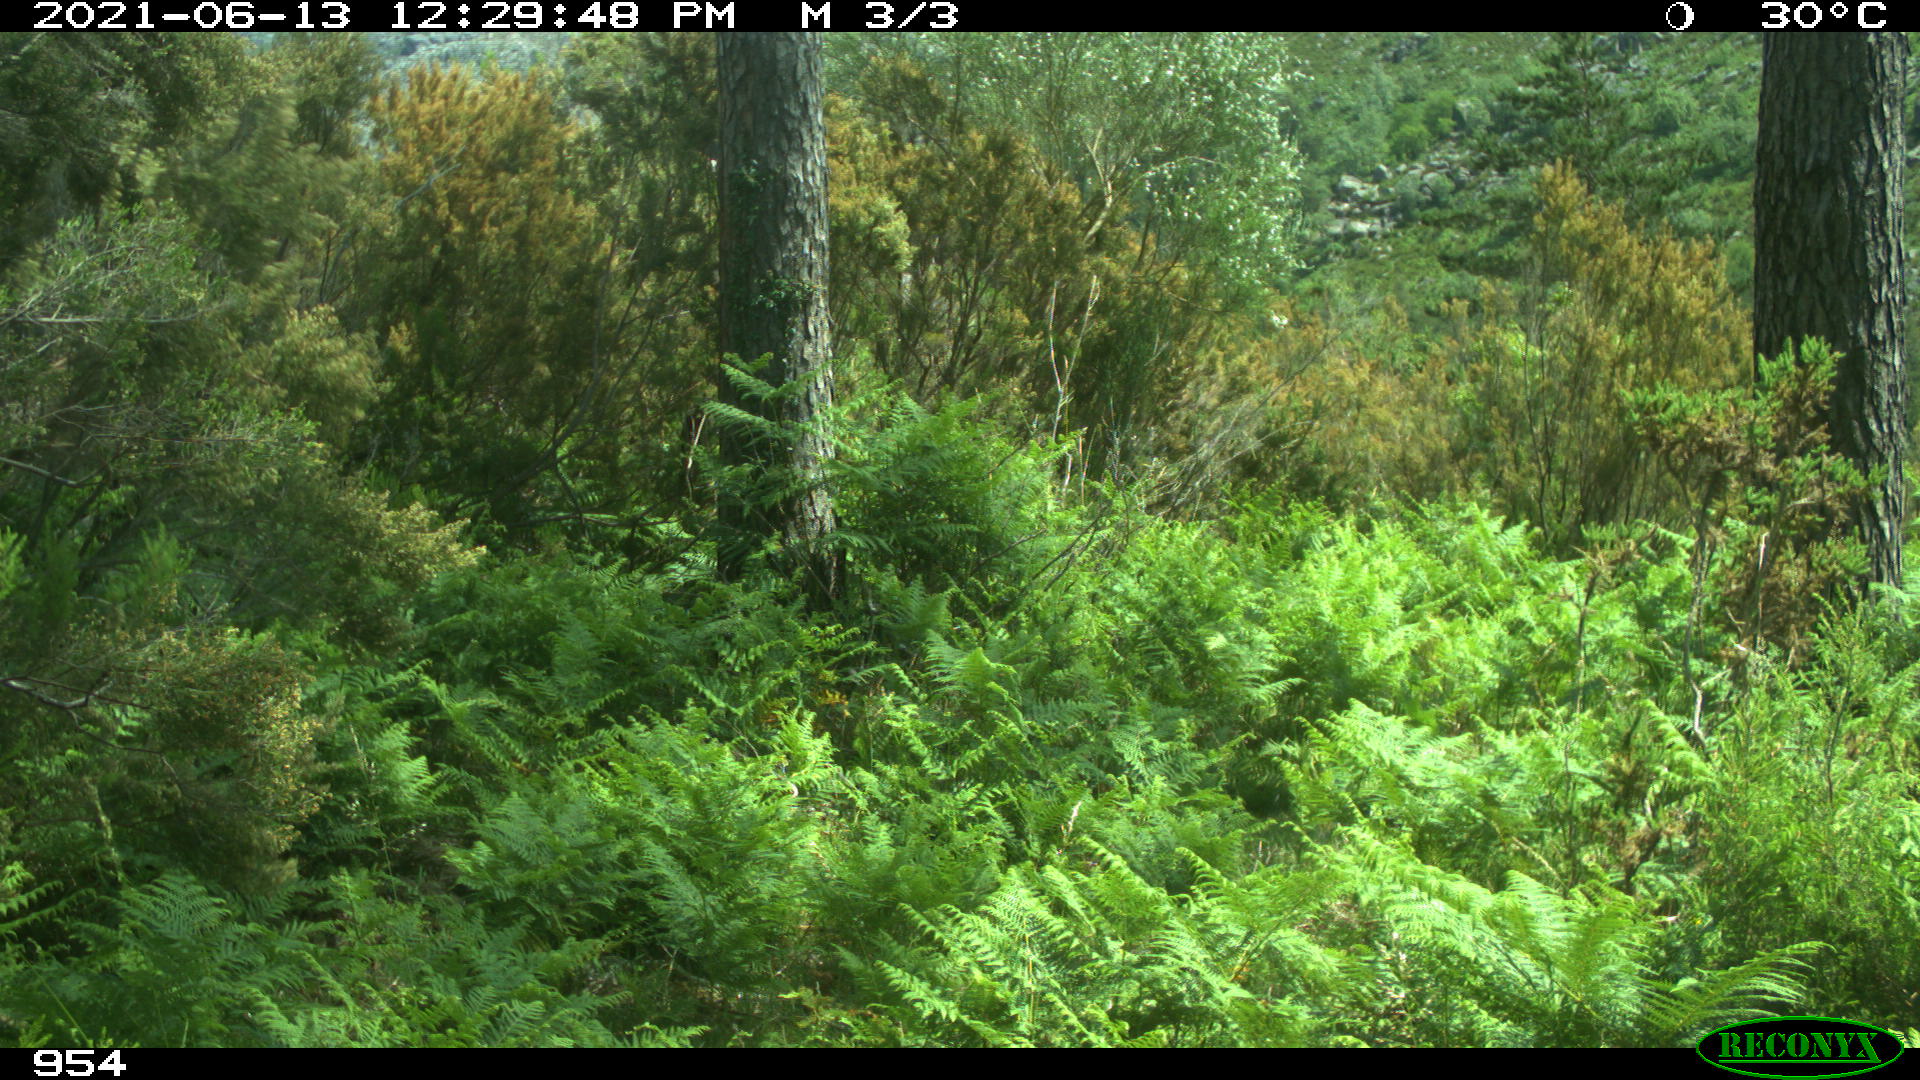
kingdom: Animalia
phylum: Chordata
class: Mammalia
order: Artiodactyla
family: Bovidae
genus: Bos
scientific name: Bos taurus
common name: Domesticated cattle
